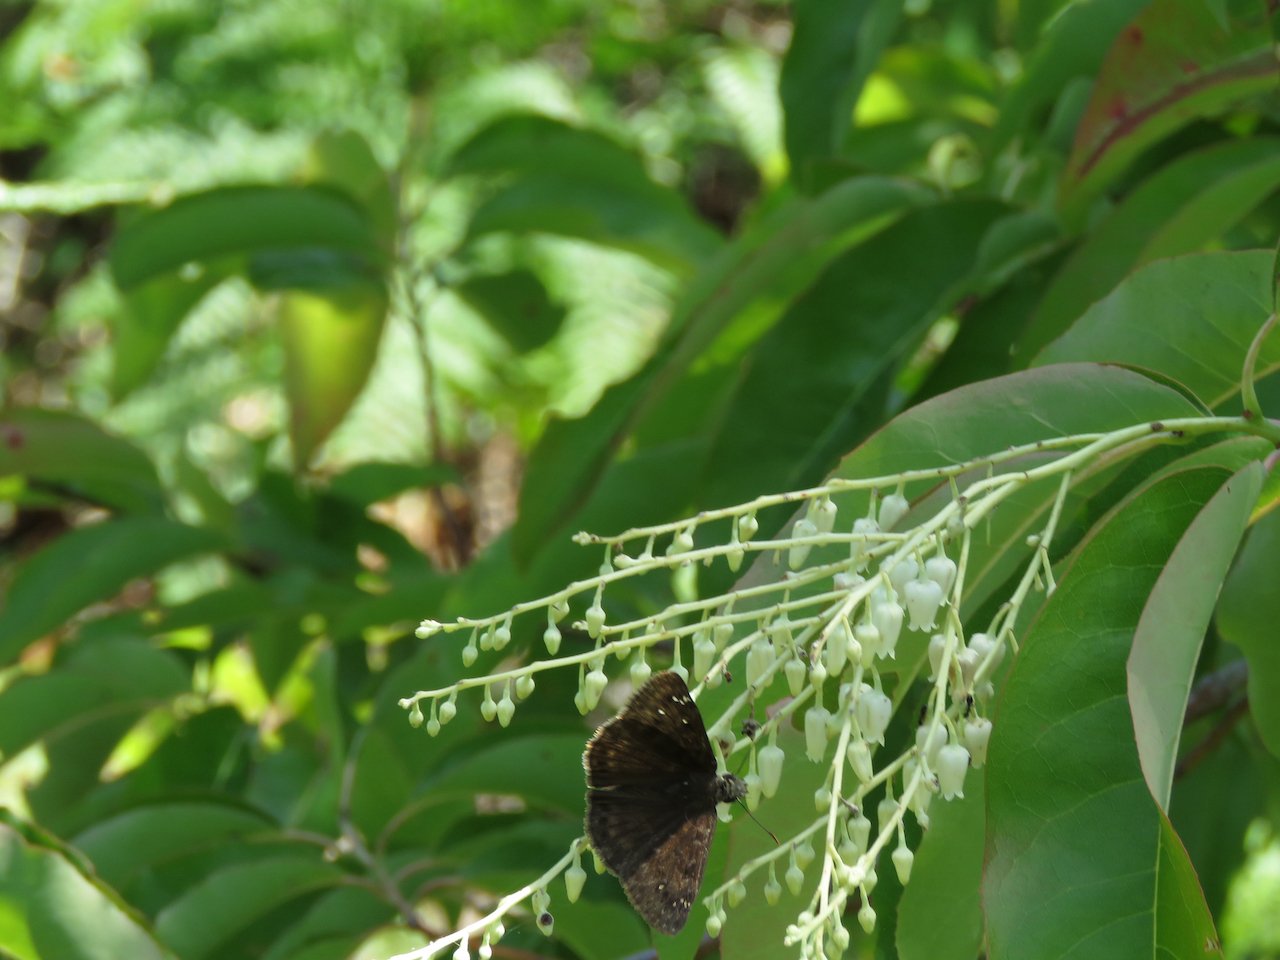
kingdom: Animalia
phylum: Arthropoda
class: Insecta
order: Lepidoptera
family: Hesperiidae
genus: Gesta
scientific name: Gesta
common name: Horace's Duskywing
